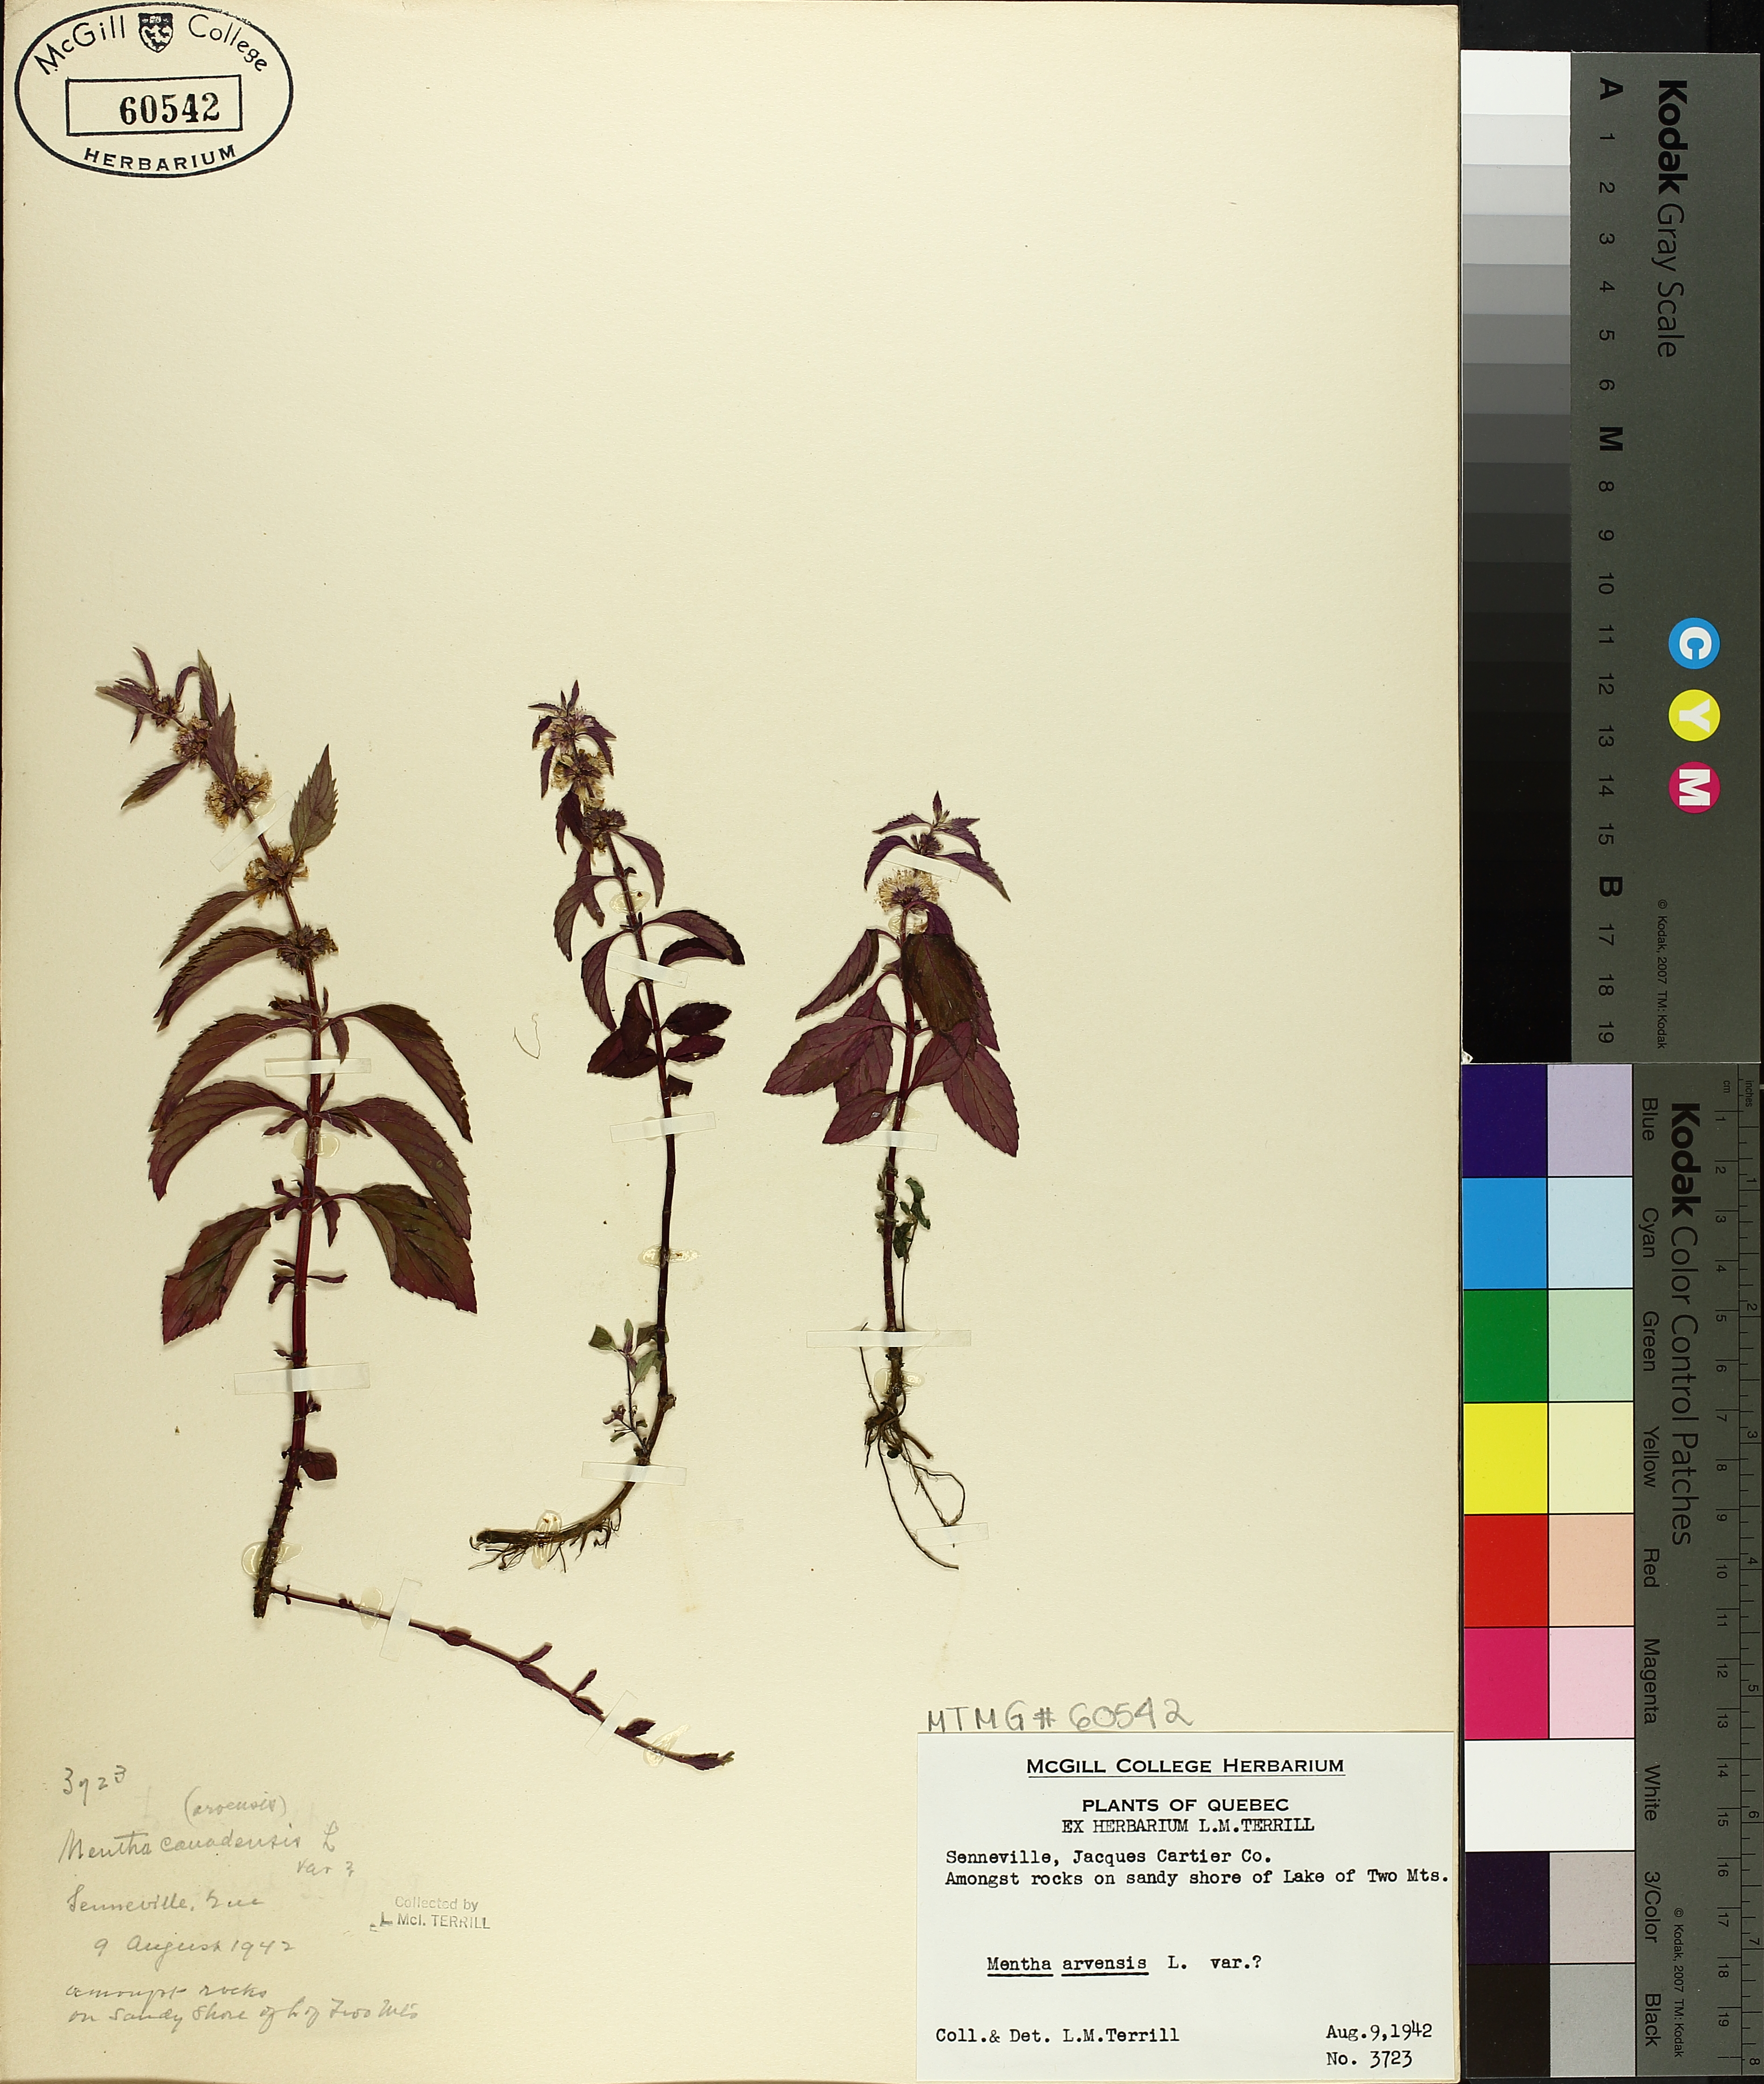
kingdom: Plantae
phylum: Tracheophyta
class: Magnoliopsida
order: Lamiales
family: Lamiaceae
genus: Mentha
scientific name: Mentha arvensis
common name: Corn mint
